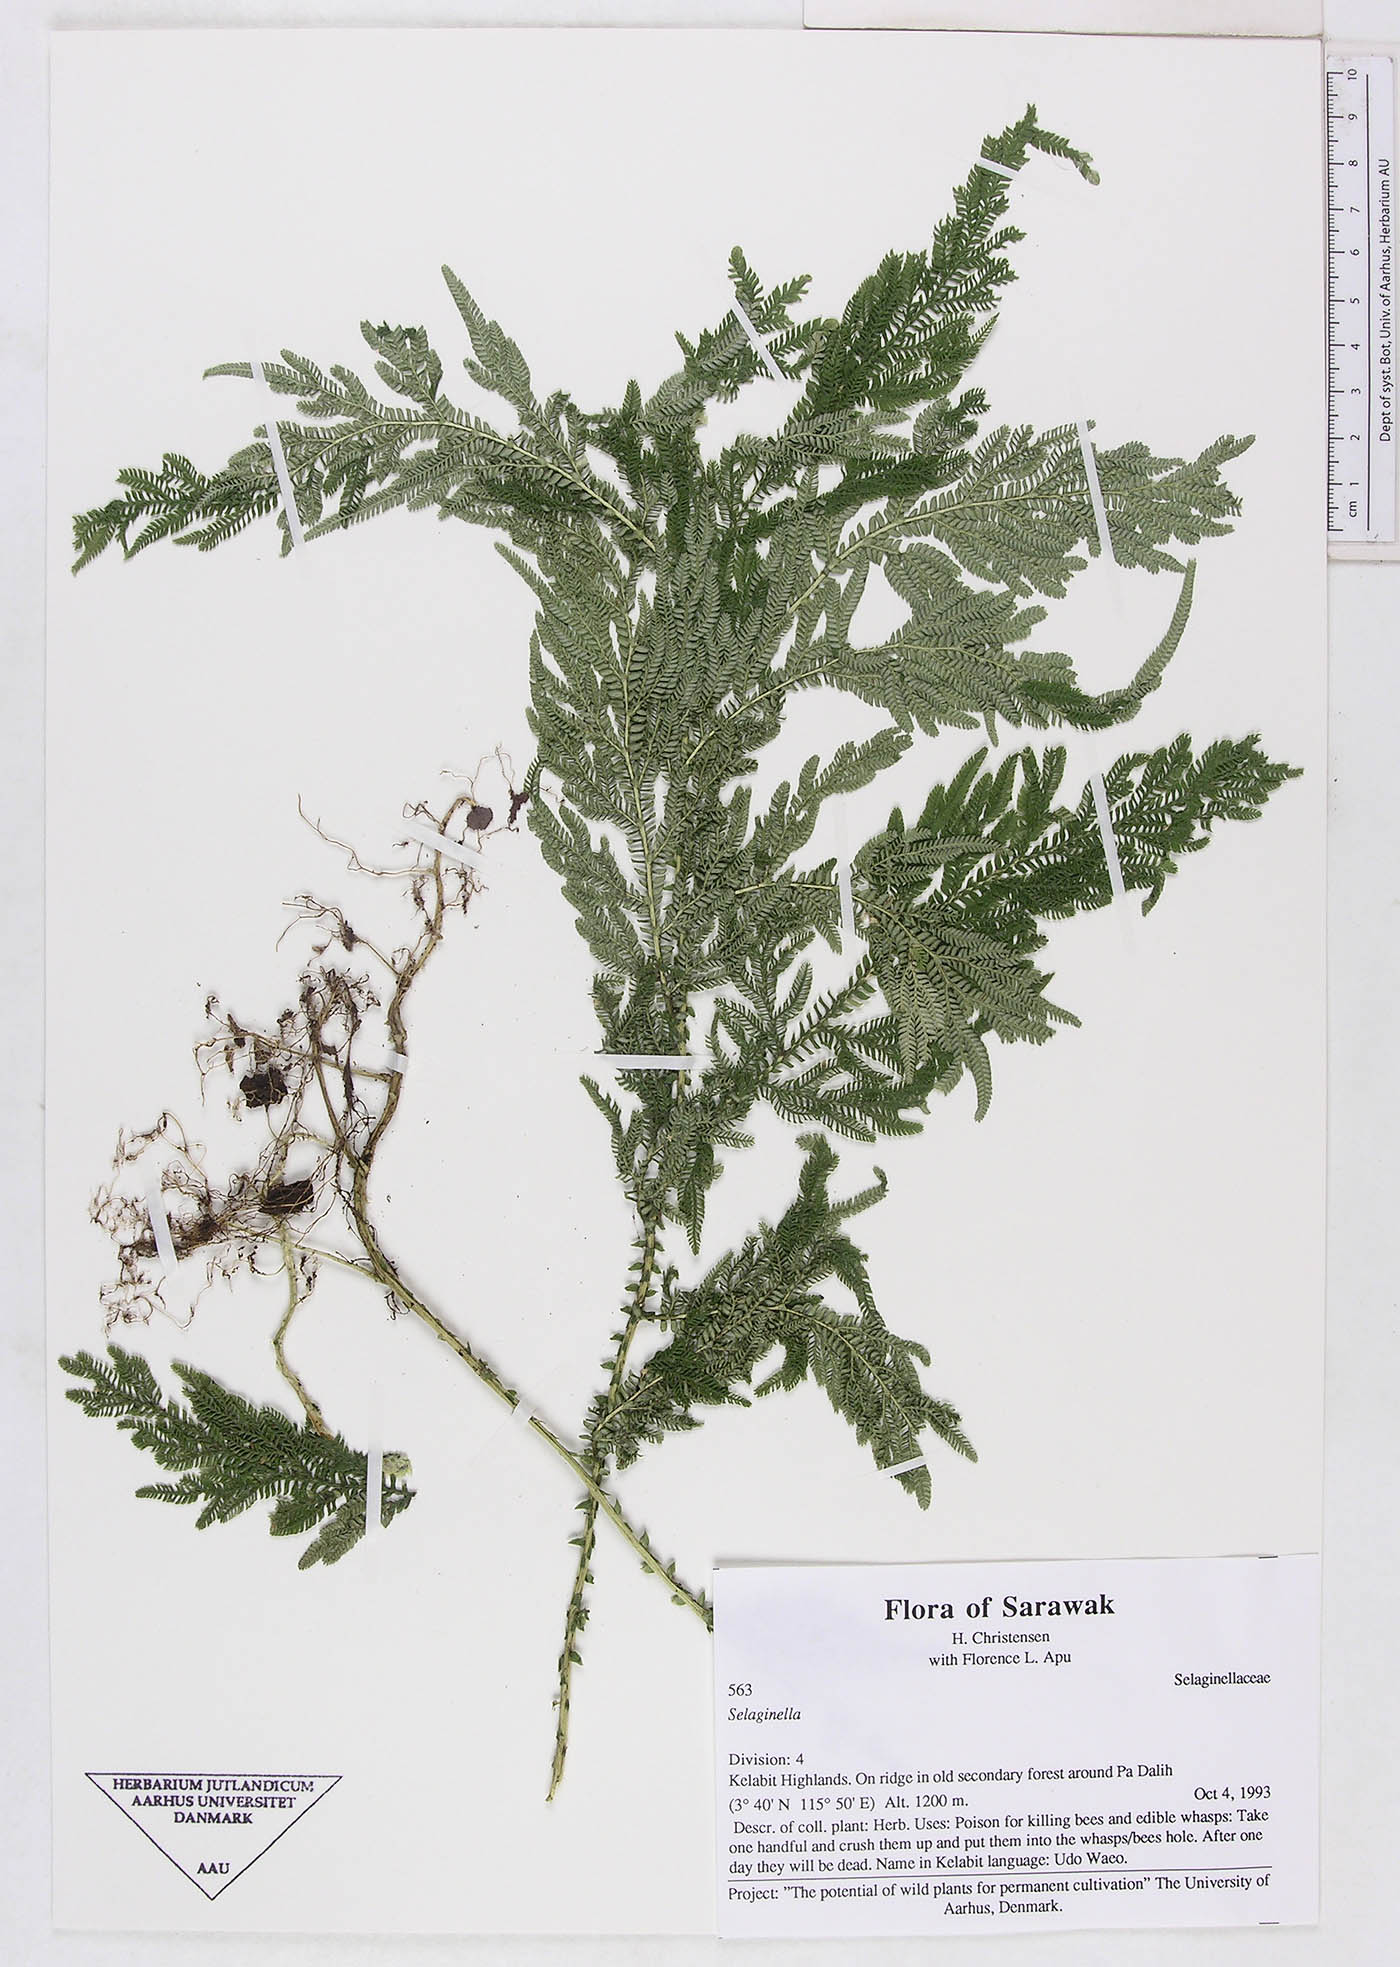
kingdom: Plantae
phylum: Tracheophyta
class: Lycopodiopsida
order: Selaginellales
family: Selaginellaceae
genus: Selaginella
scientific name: Selaginella
